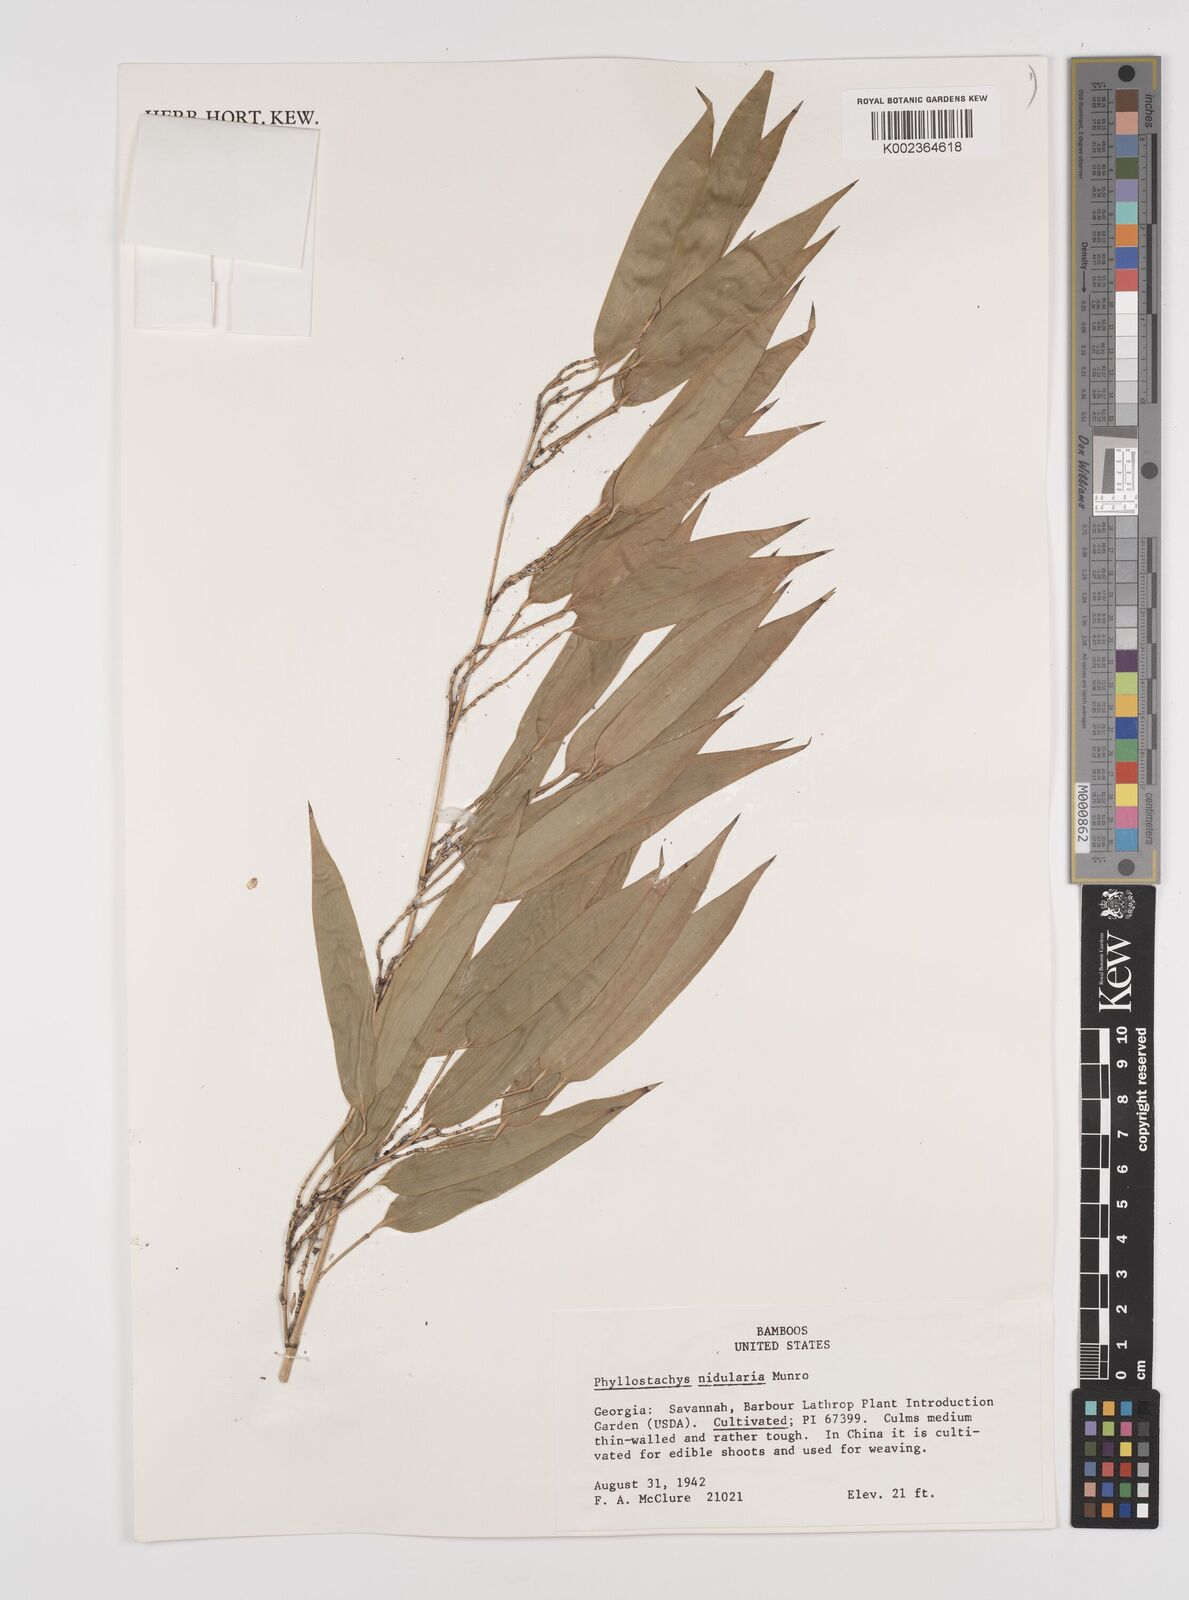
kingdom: Plantae
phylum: Tracheophyta
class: Liliopsida
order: Poales
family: Poaceae
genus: Phyllostachys
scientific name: Phyllostachys nidularia
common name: Broom bamboo
